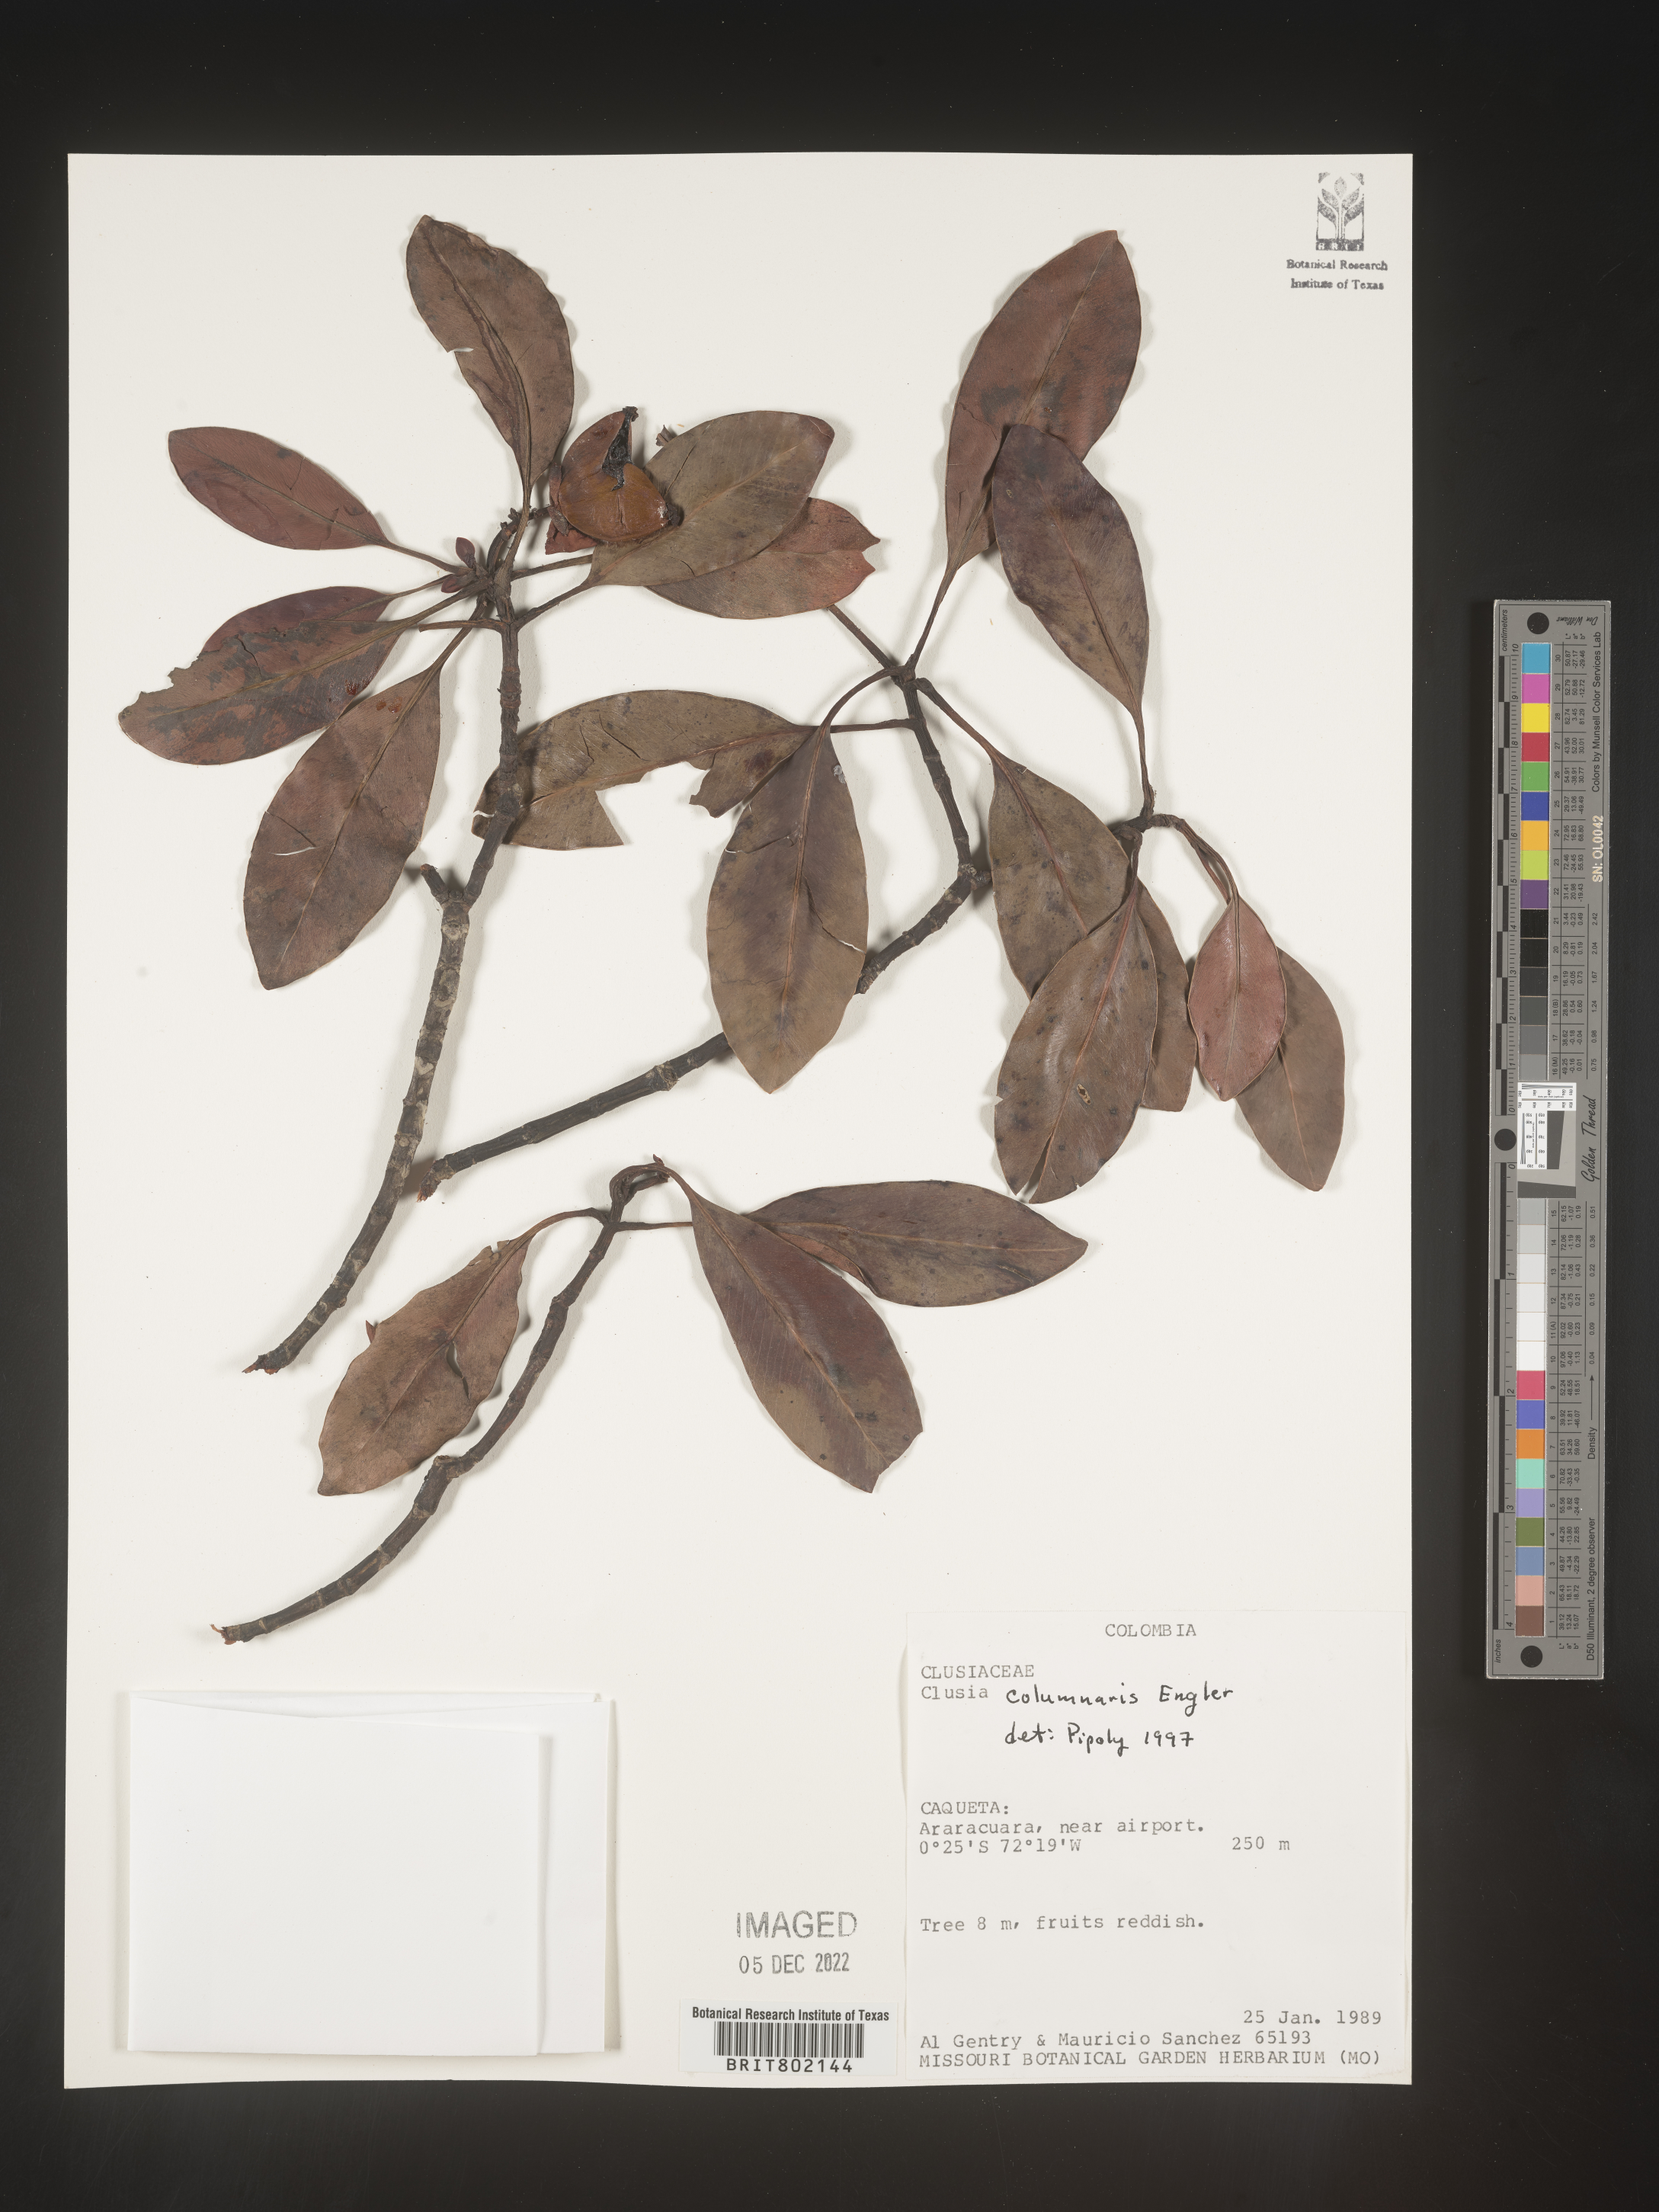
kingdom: Plantae
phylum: Tracheophyta
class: Magnoliopsida
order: Malpighiales
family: Clusiaceae
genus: Clusia
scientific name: Clusia columnaris
